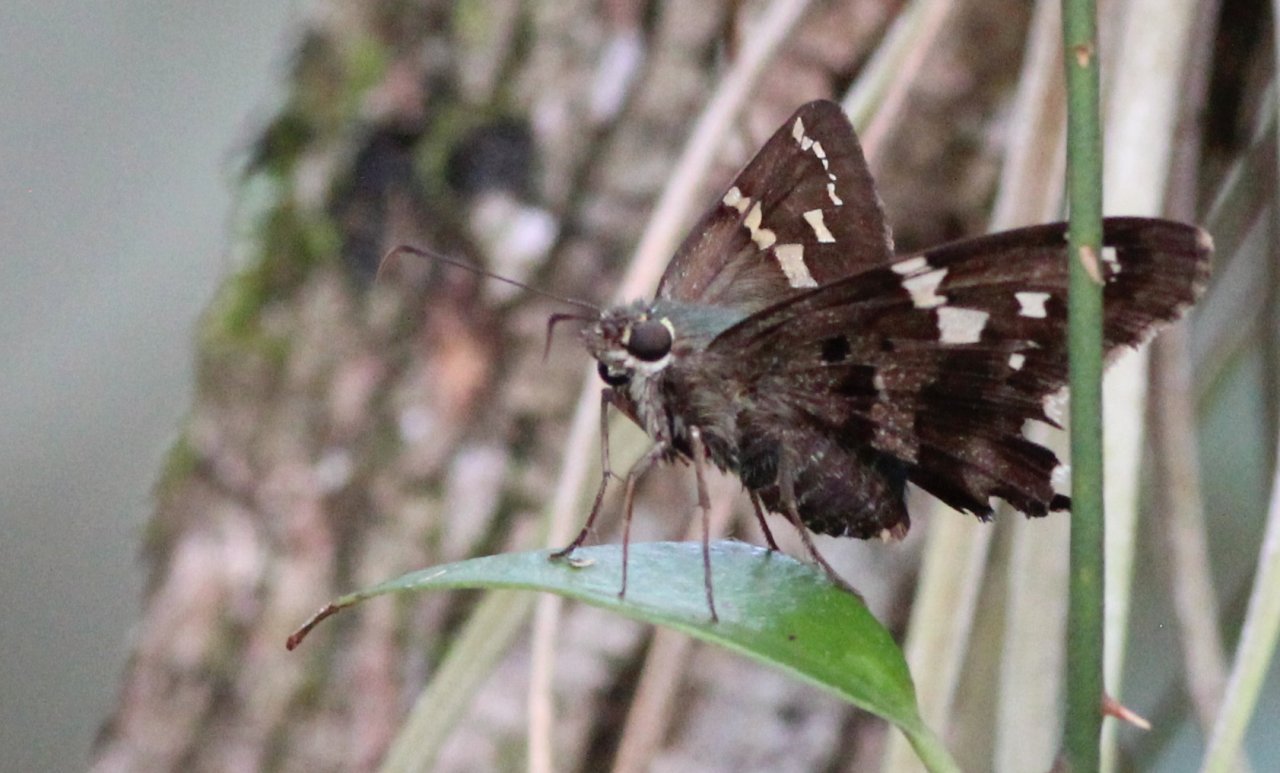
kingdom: Animalia
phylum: Arthropoda
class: Insecta
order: Lepidoptera
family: Hesperiidae
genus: Urbanus
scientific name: Urbanus proteus
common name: Long-tailed Skipper
